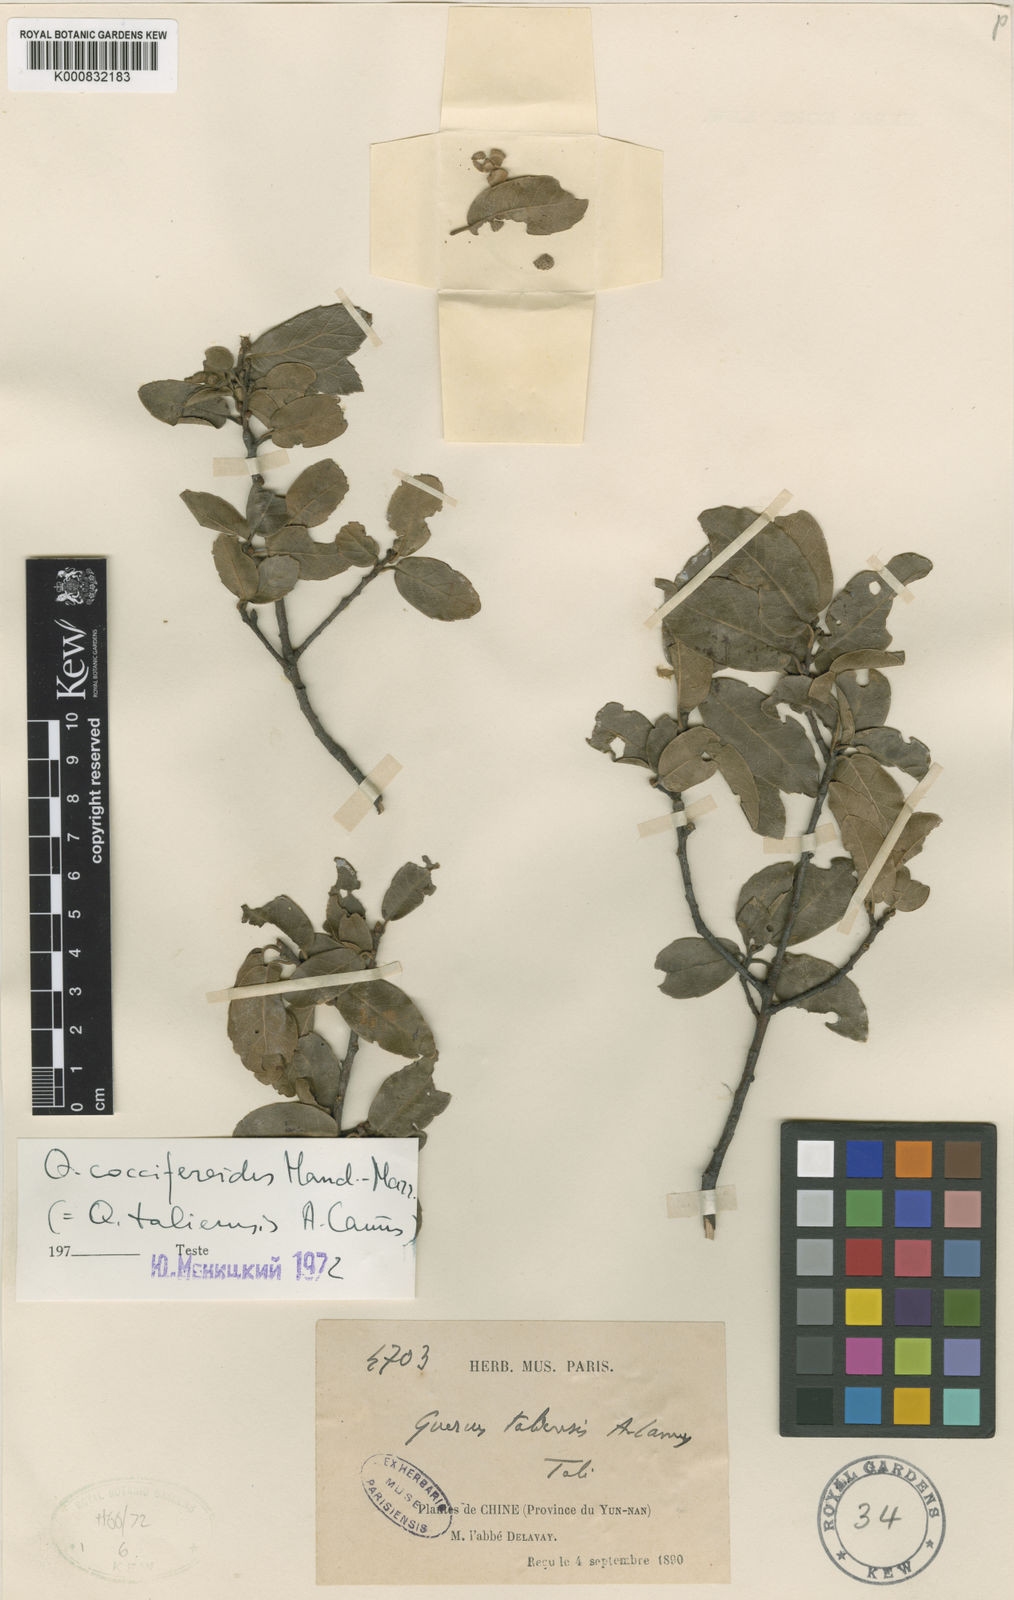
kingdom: Plantae
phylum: Tracheophyta
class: Magnoliopsida
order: Fagales
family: Fagaceae
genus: Quercus
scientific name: Quercus cocciferoides
